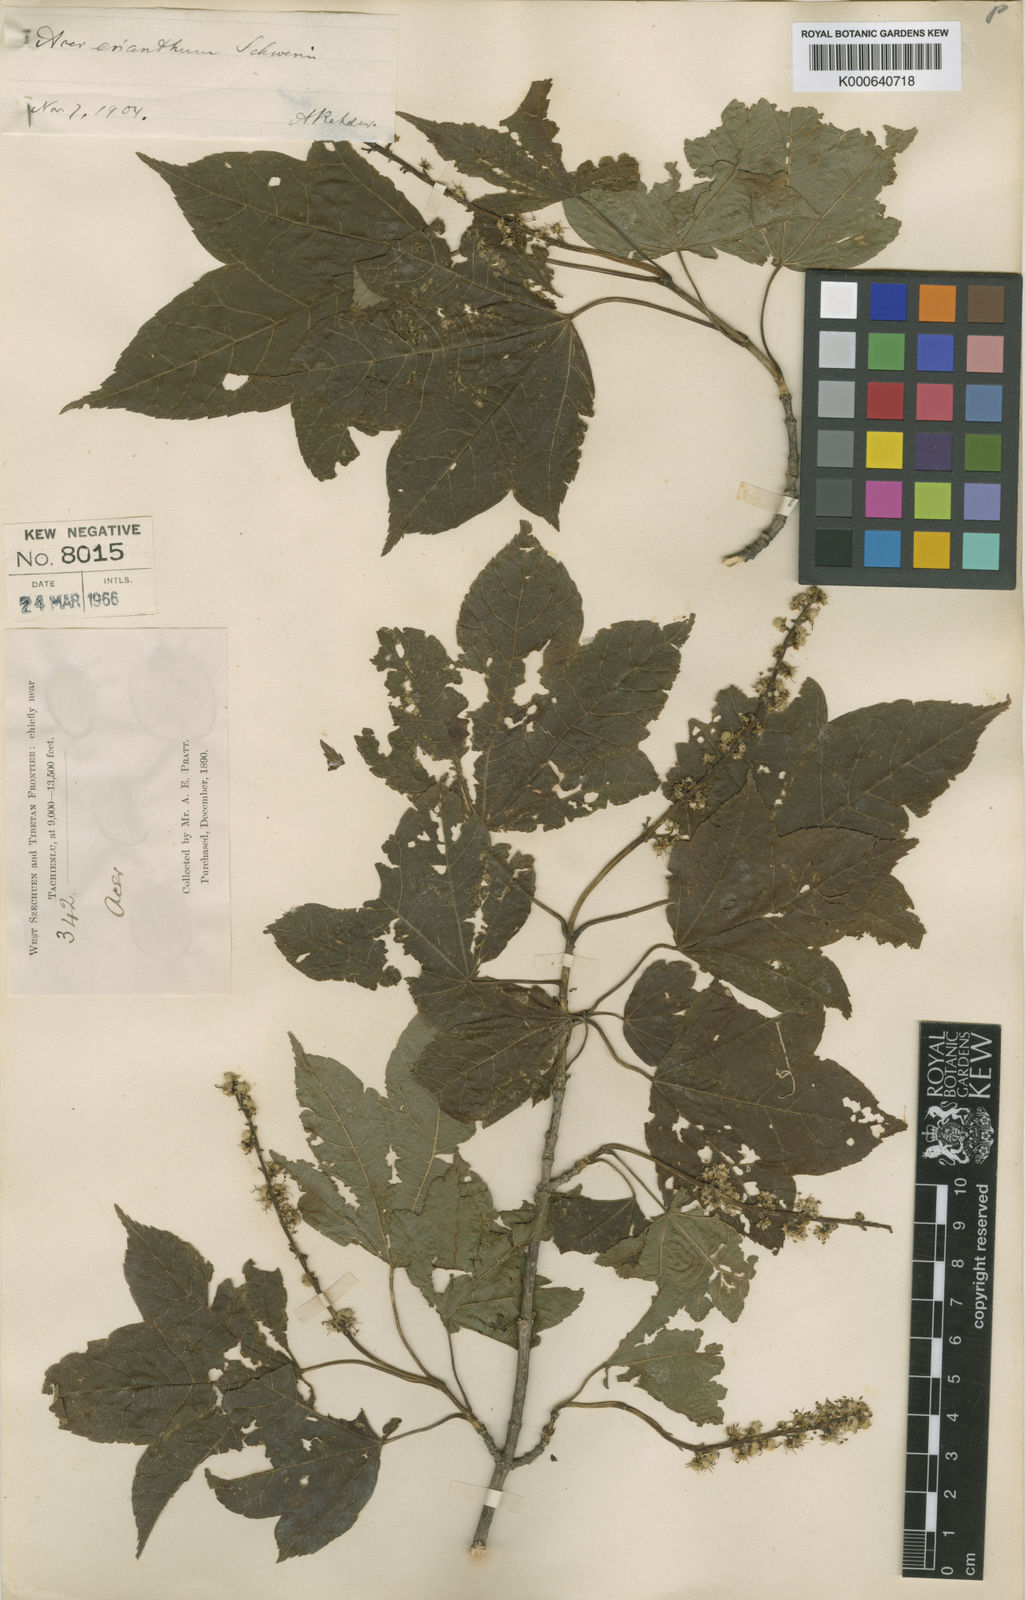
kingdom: Plantae
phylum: Tracheophyta
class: Magnoliopsida
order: Sapindales
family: Sapindaceae
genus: Acer
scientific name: Acer erianthum
